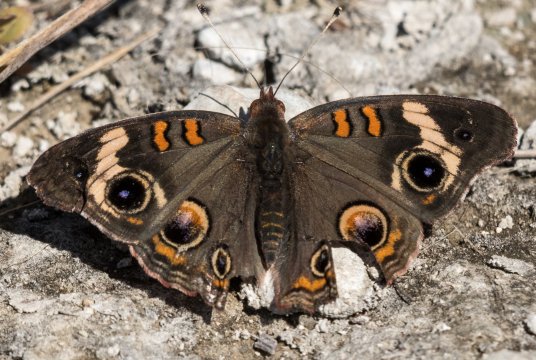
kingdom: Animalia
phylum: Arthropoda
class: Insecta
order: Lepidoptera
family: Nymphalidae
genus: Junonia
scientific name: Junonia coenia
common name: Common Buckeye
